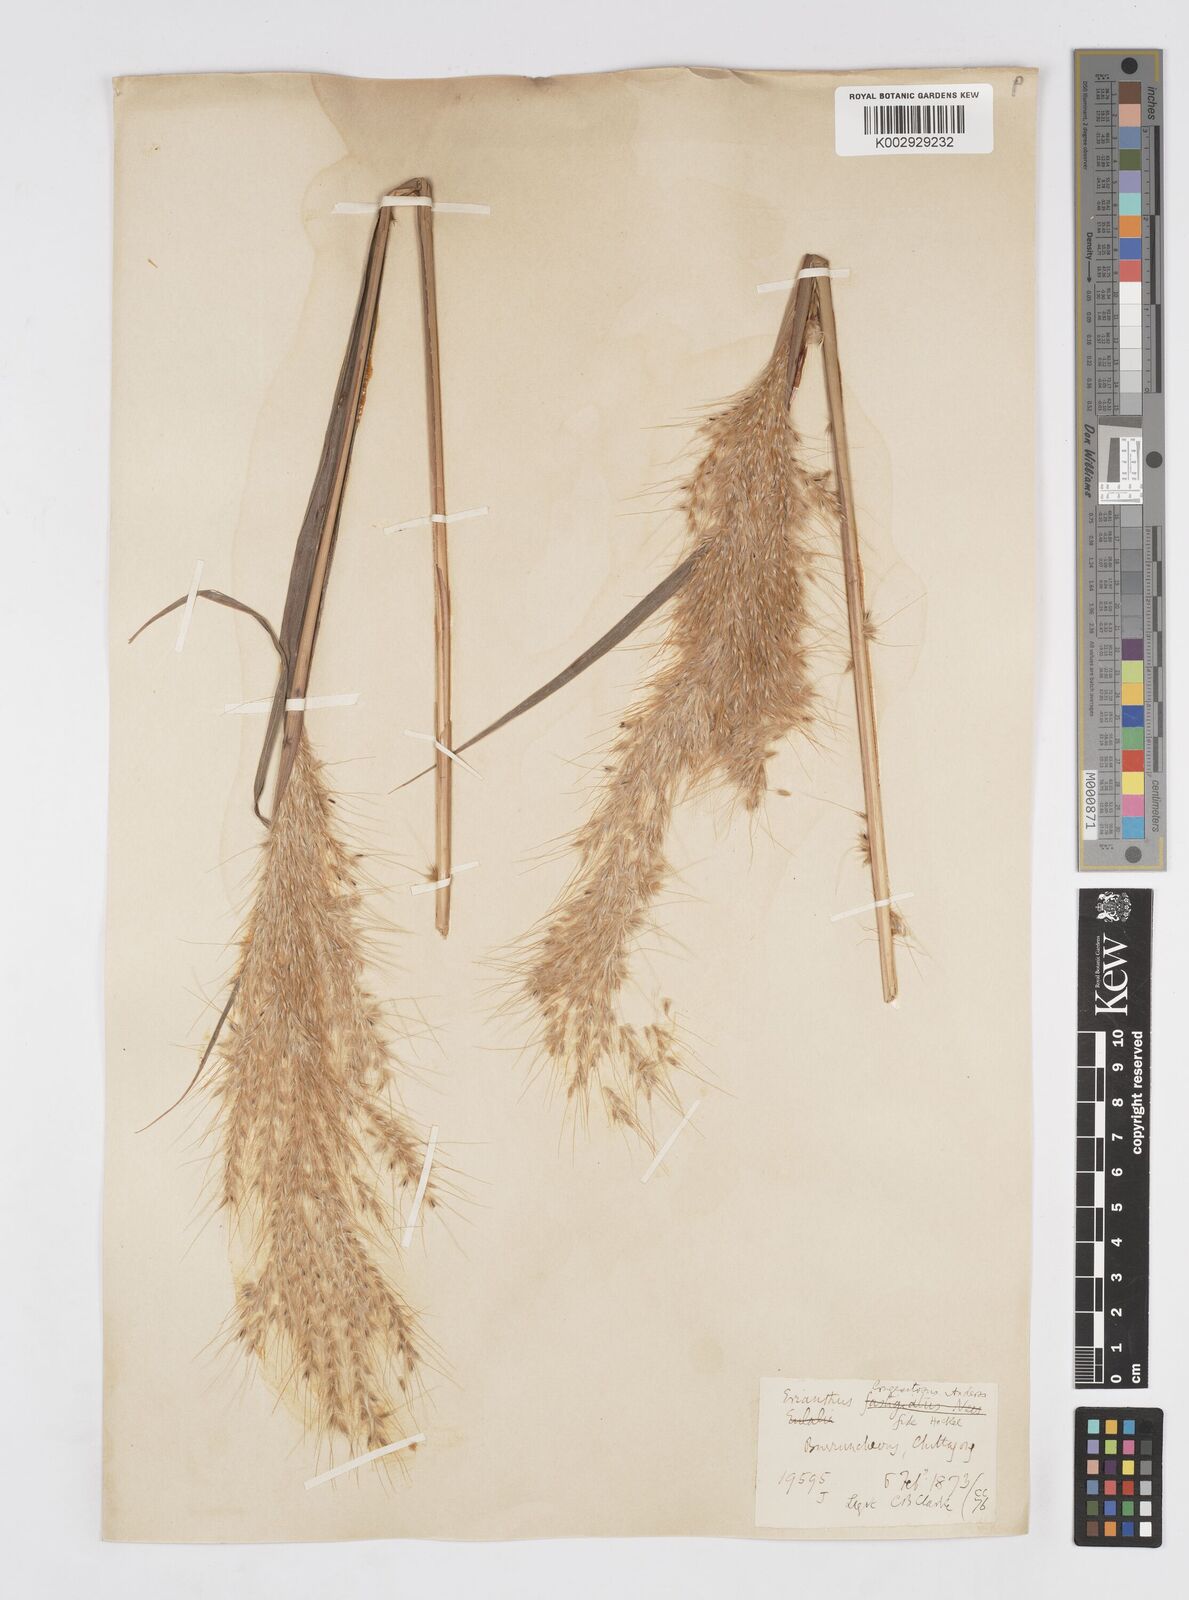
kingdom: Plantae
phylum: Tracheophyta
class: Liliopsida
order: Poales
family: Poaceae
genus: Melinis
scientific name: Melinis longiseta
